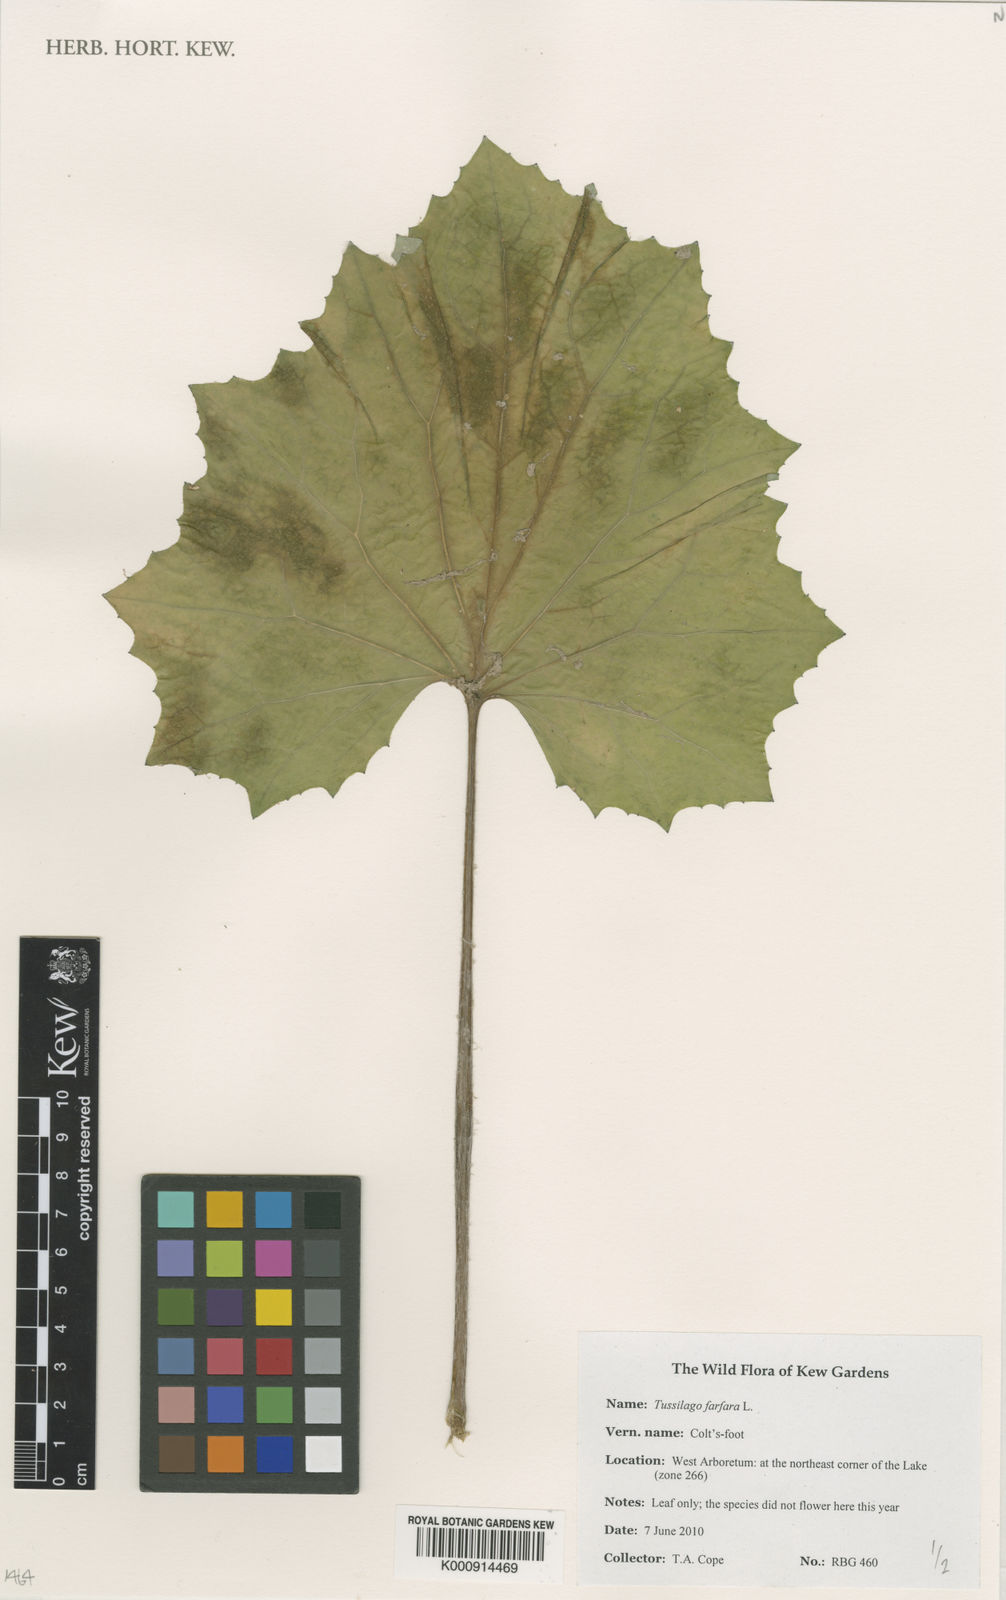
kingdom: Plantae
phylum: Tracheophyta
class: Magnoliopsida
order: Asterales
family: Asteraceae
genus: Tussilago
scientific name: Tussilago farfara
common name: Coltsfoot
